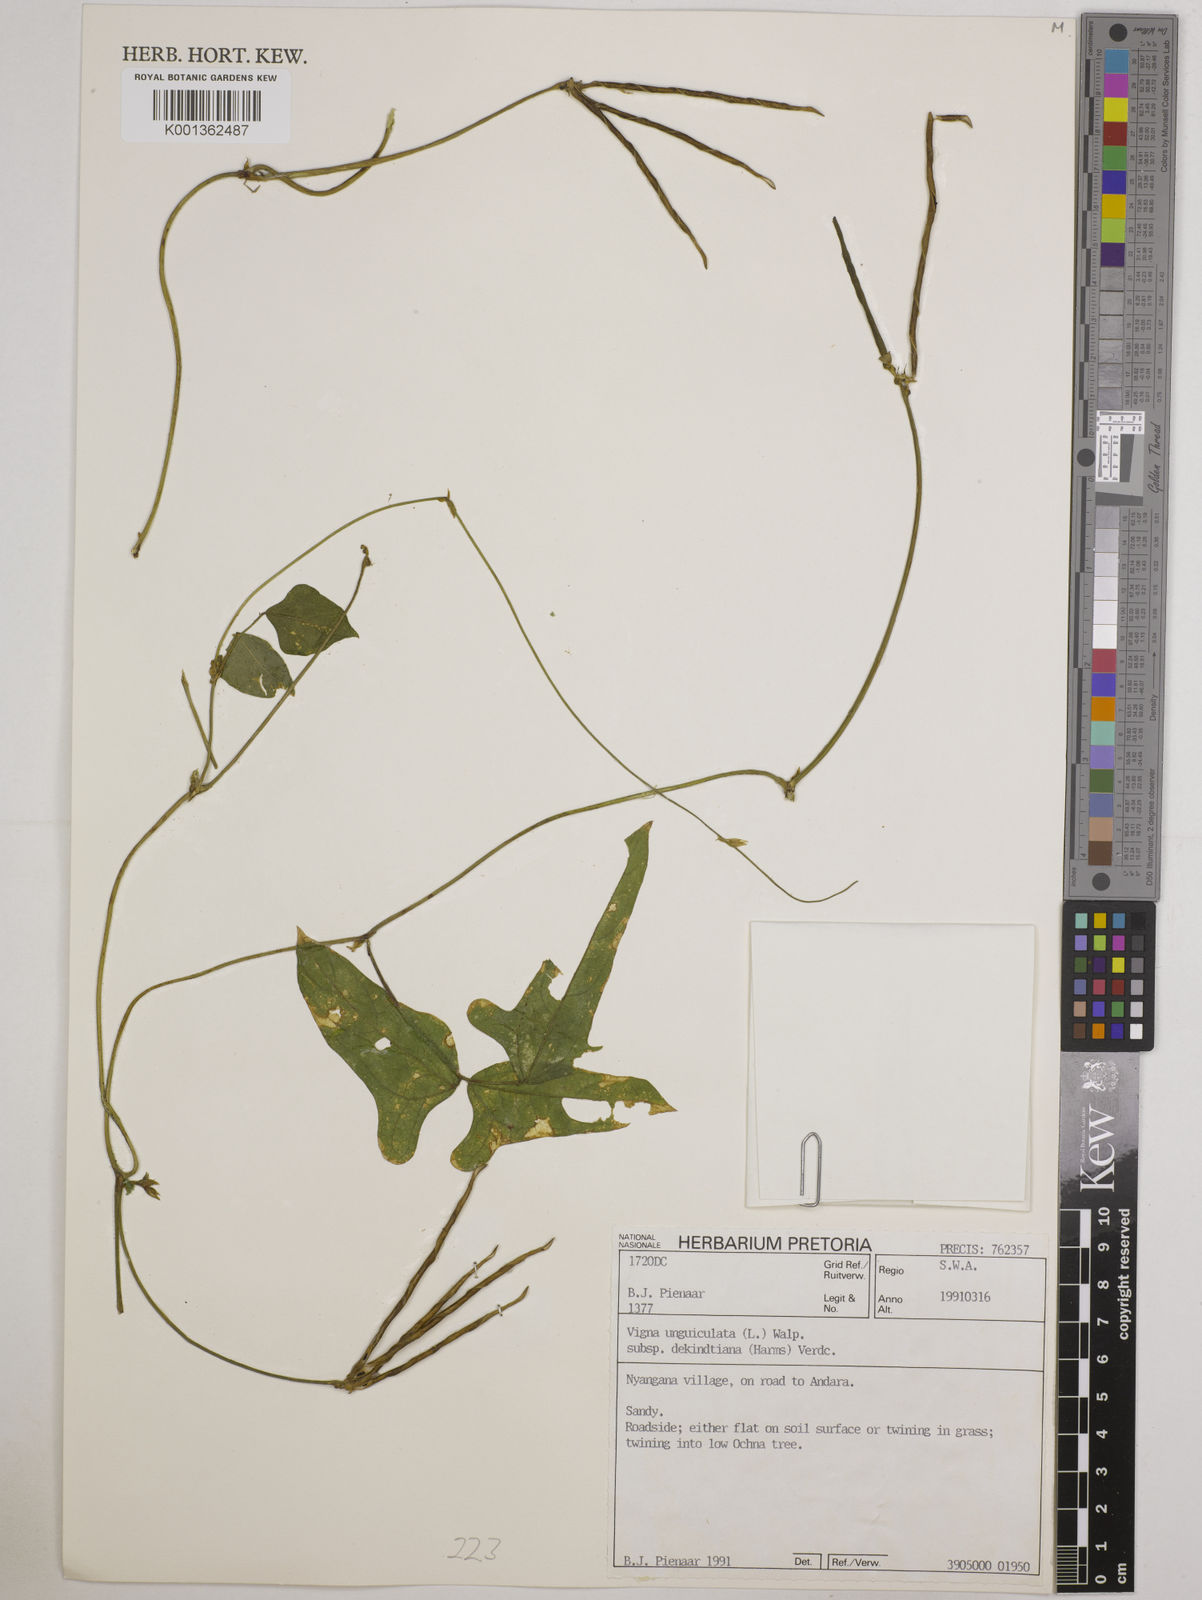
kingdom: Plantae
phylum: Tracheophyta
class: Magnoliopsida
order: Fabales
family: Fabaceae
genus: Vigna
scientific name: Vigna
